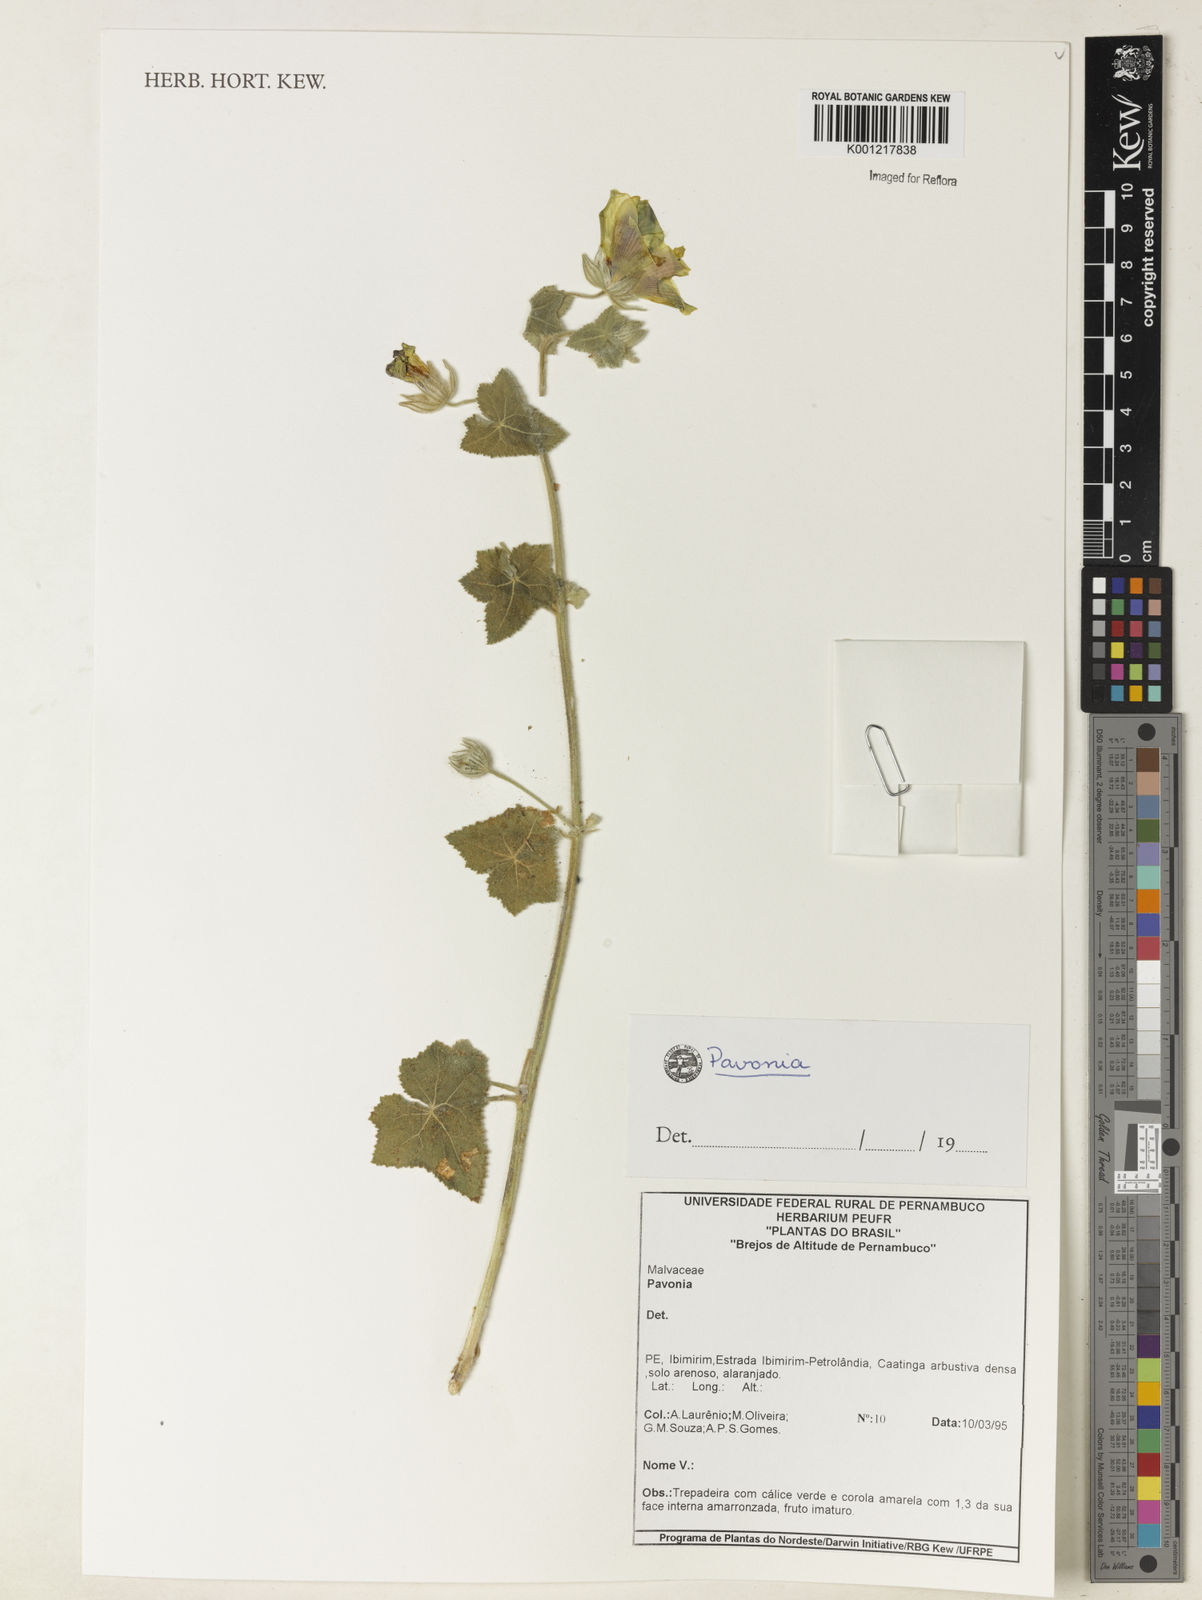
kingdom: Plantae
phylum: Tracheophyta
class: Magnoliopsida
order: Malvales
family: Malvaceae
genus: Pavonia
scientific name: Pavonia
